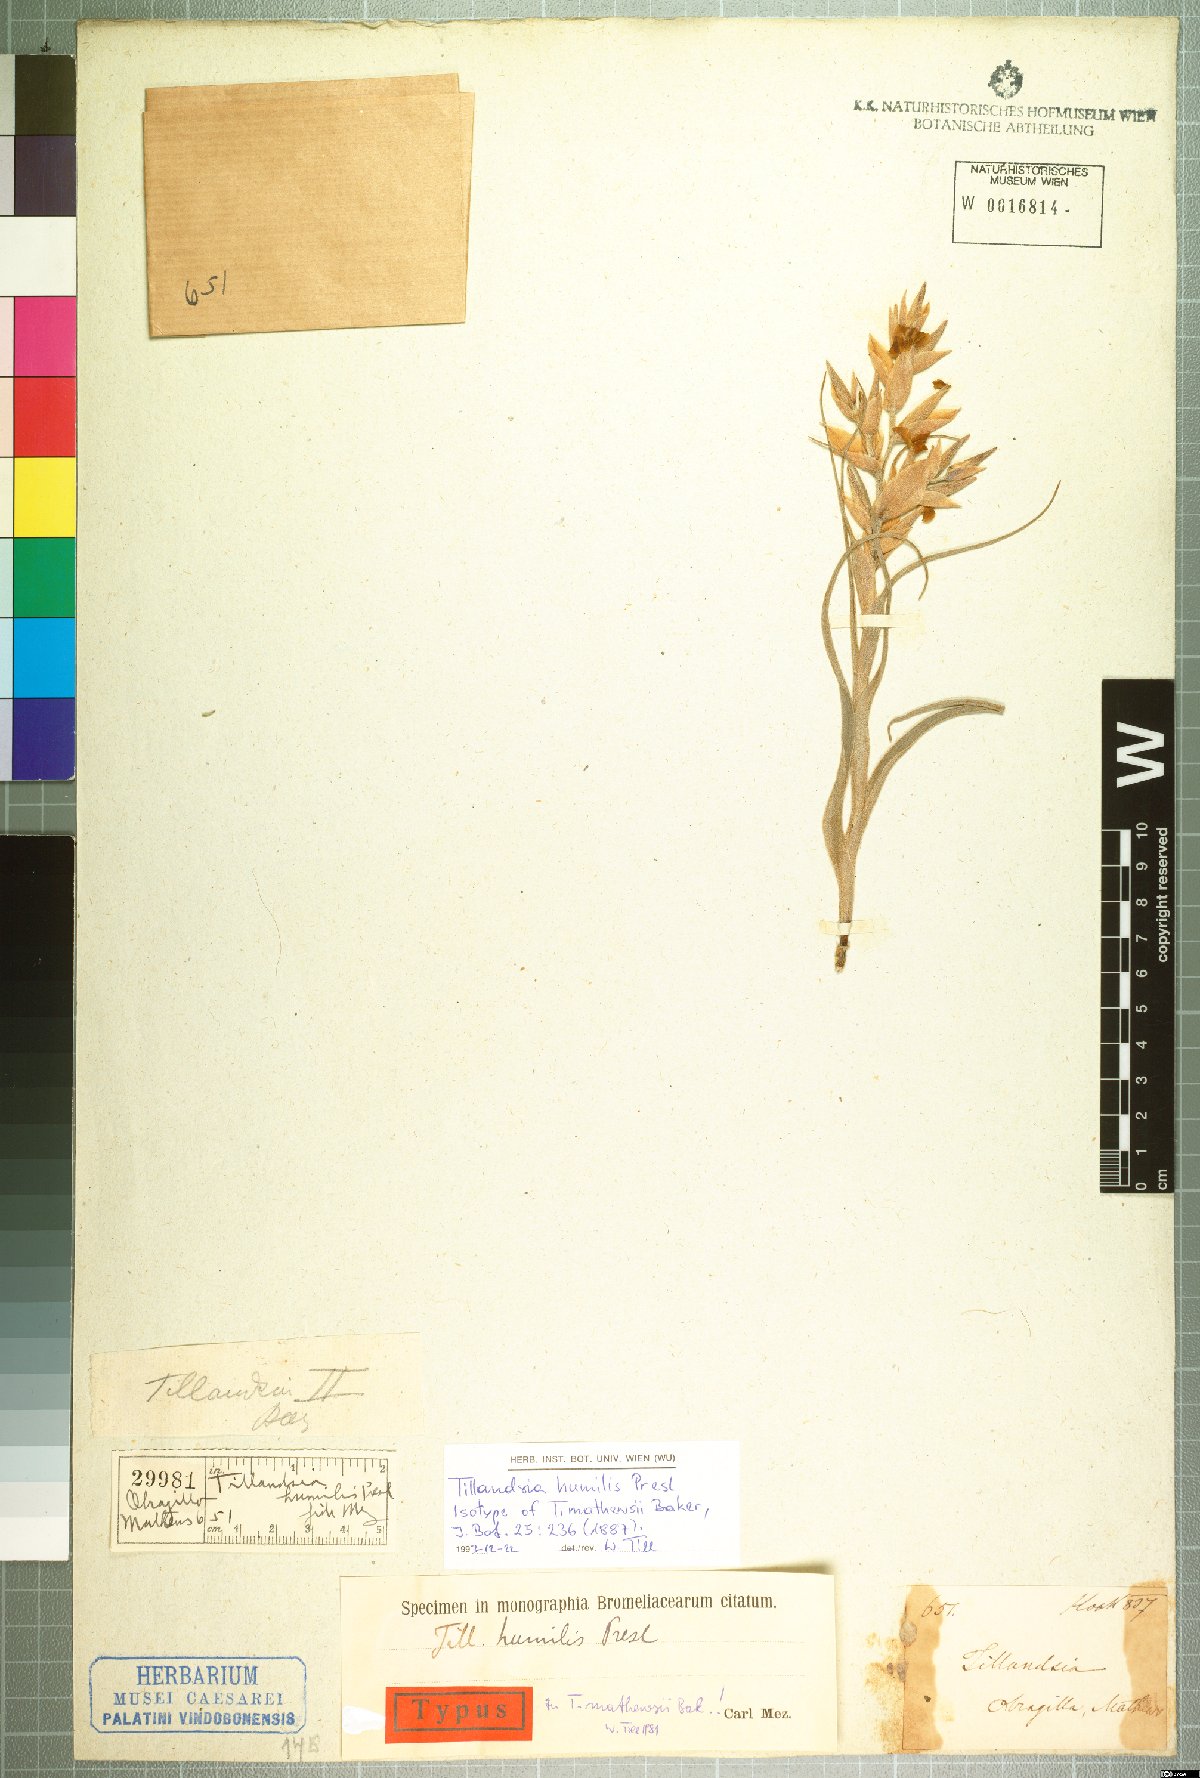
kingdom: Plantae
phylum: Tracheophyta
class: Liliopsida
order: Poales
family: Bromeliaceae
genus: Tillandsia
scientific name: Tillandsia humilis
